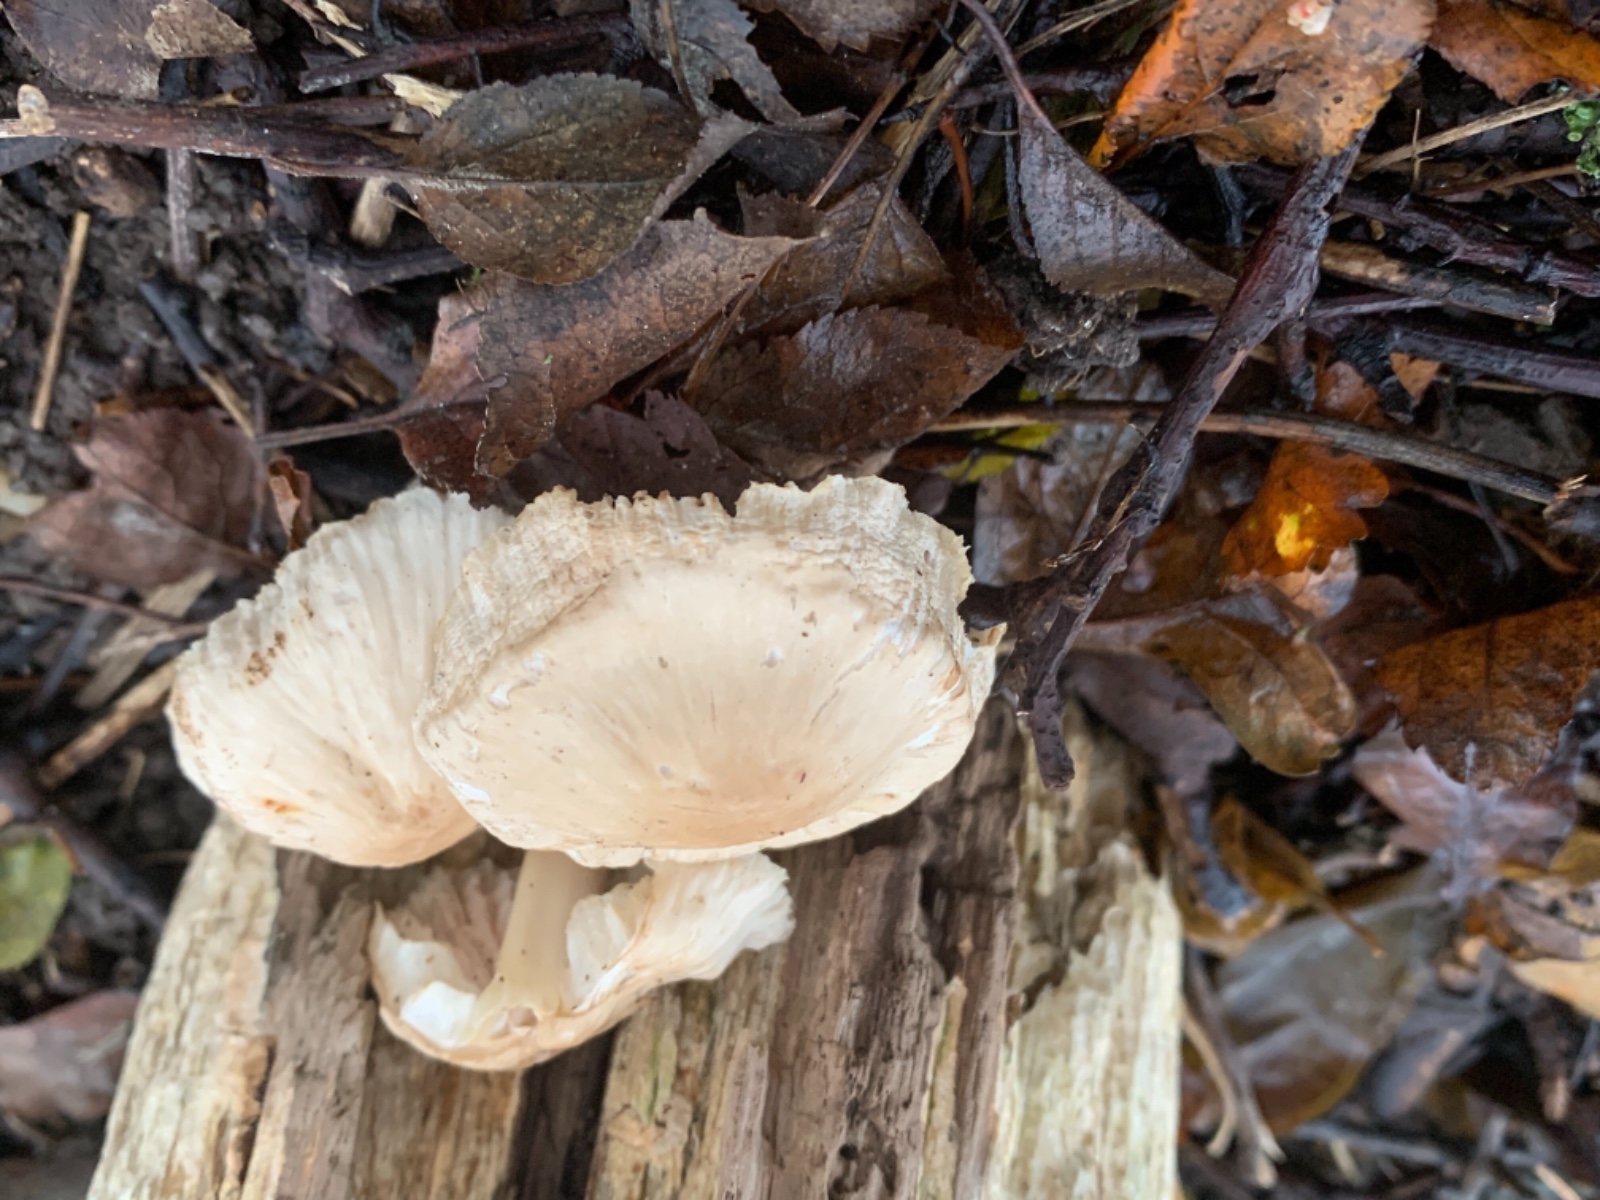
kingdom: Fungi
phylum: Basidiomycota
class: Agaricomycetes
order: Agaricales
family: Mycenaceae
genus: Mycena
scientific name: Mycena galericulata
